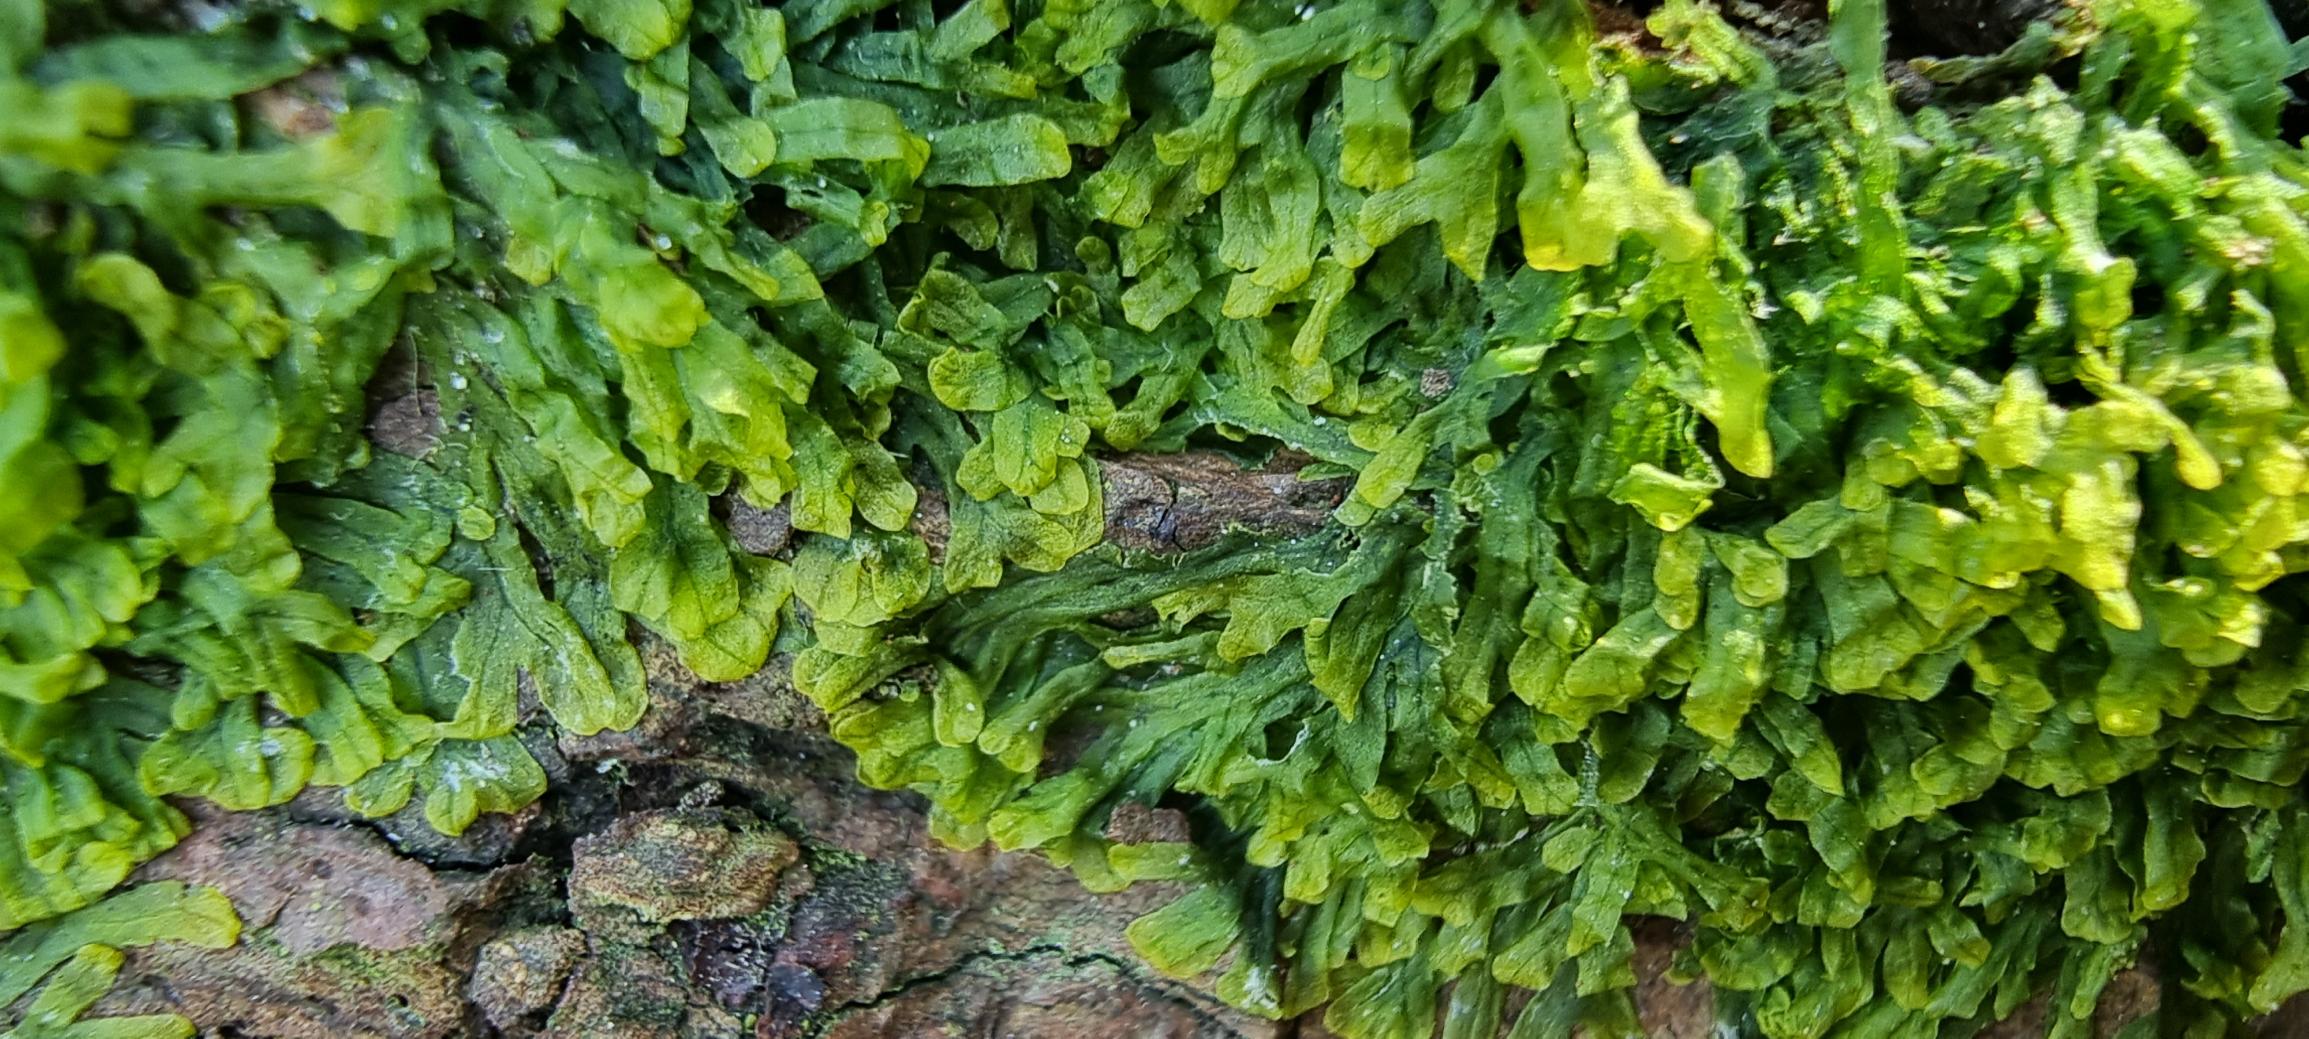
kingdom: Plantae
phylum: Marchantiophyta
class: Jungermanniopsida
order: Metzgeriales
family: Metzgeriaceae
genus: Metzgeria
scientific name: Metzgeria furcata
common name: Almindelig gaffelløv
